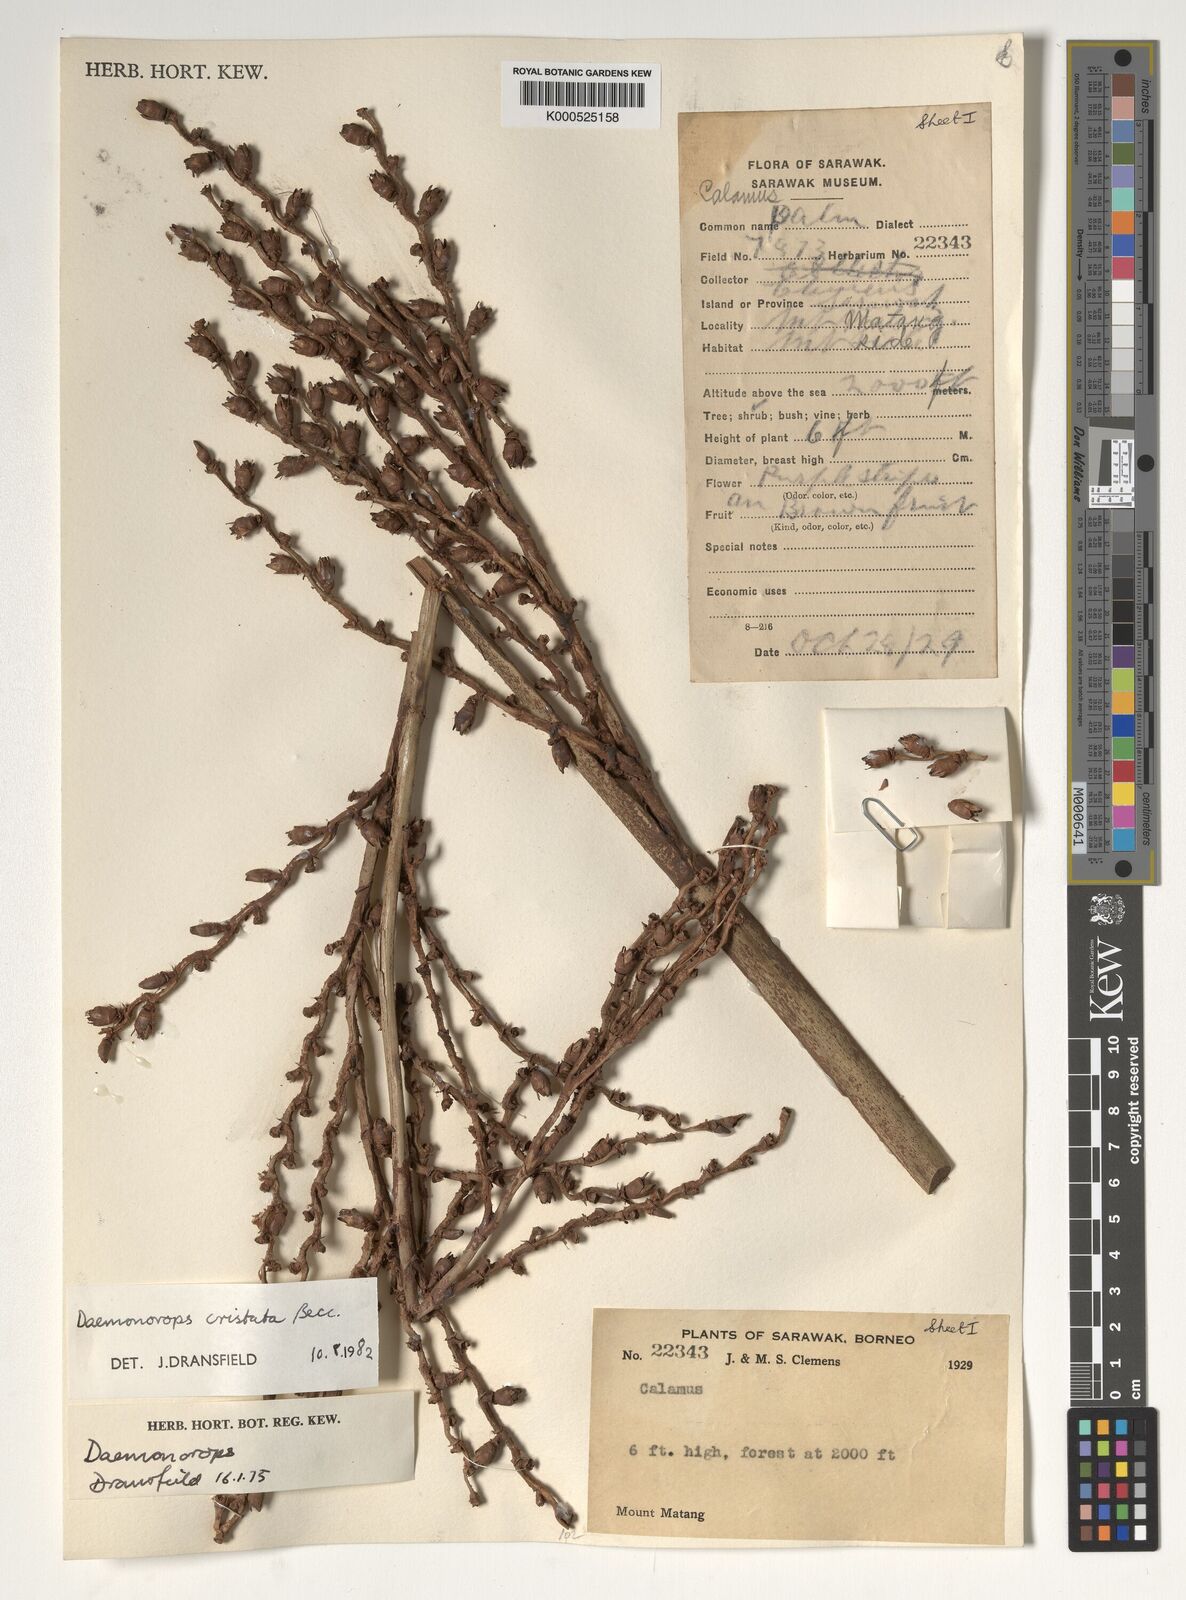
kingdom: Plantae
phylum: Tracheophyta
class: Liliopsida
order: Arecales
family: Arecaceae
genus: Calamus
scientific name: Calamus cristatus
